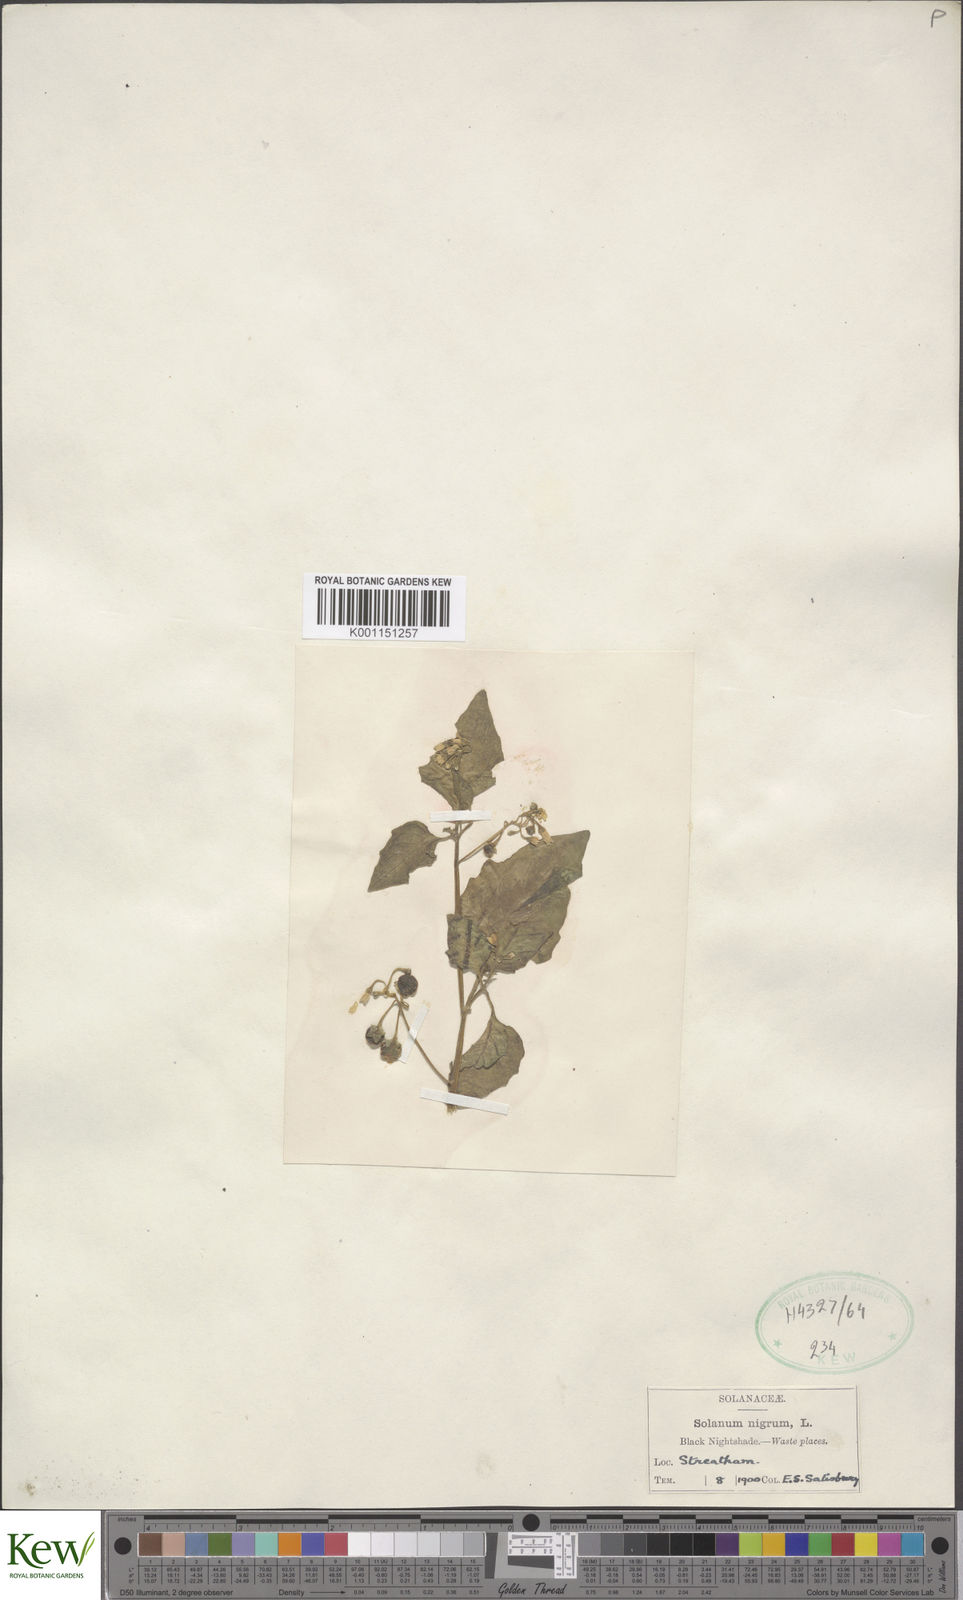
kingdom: Plantae
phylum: Tracheophyta
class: Magnoliopsida
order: Solanales
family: Solanaceae
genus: Solanum
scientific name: Solanum nigrum
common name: Black nightshade
